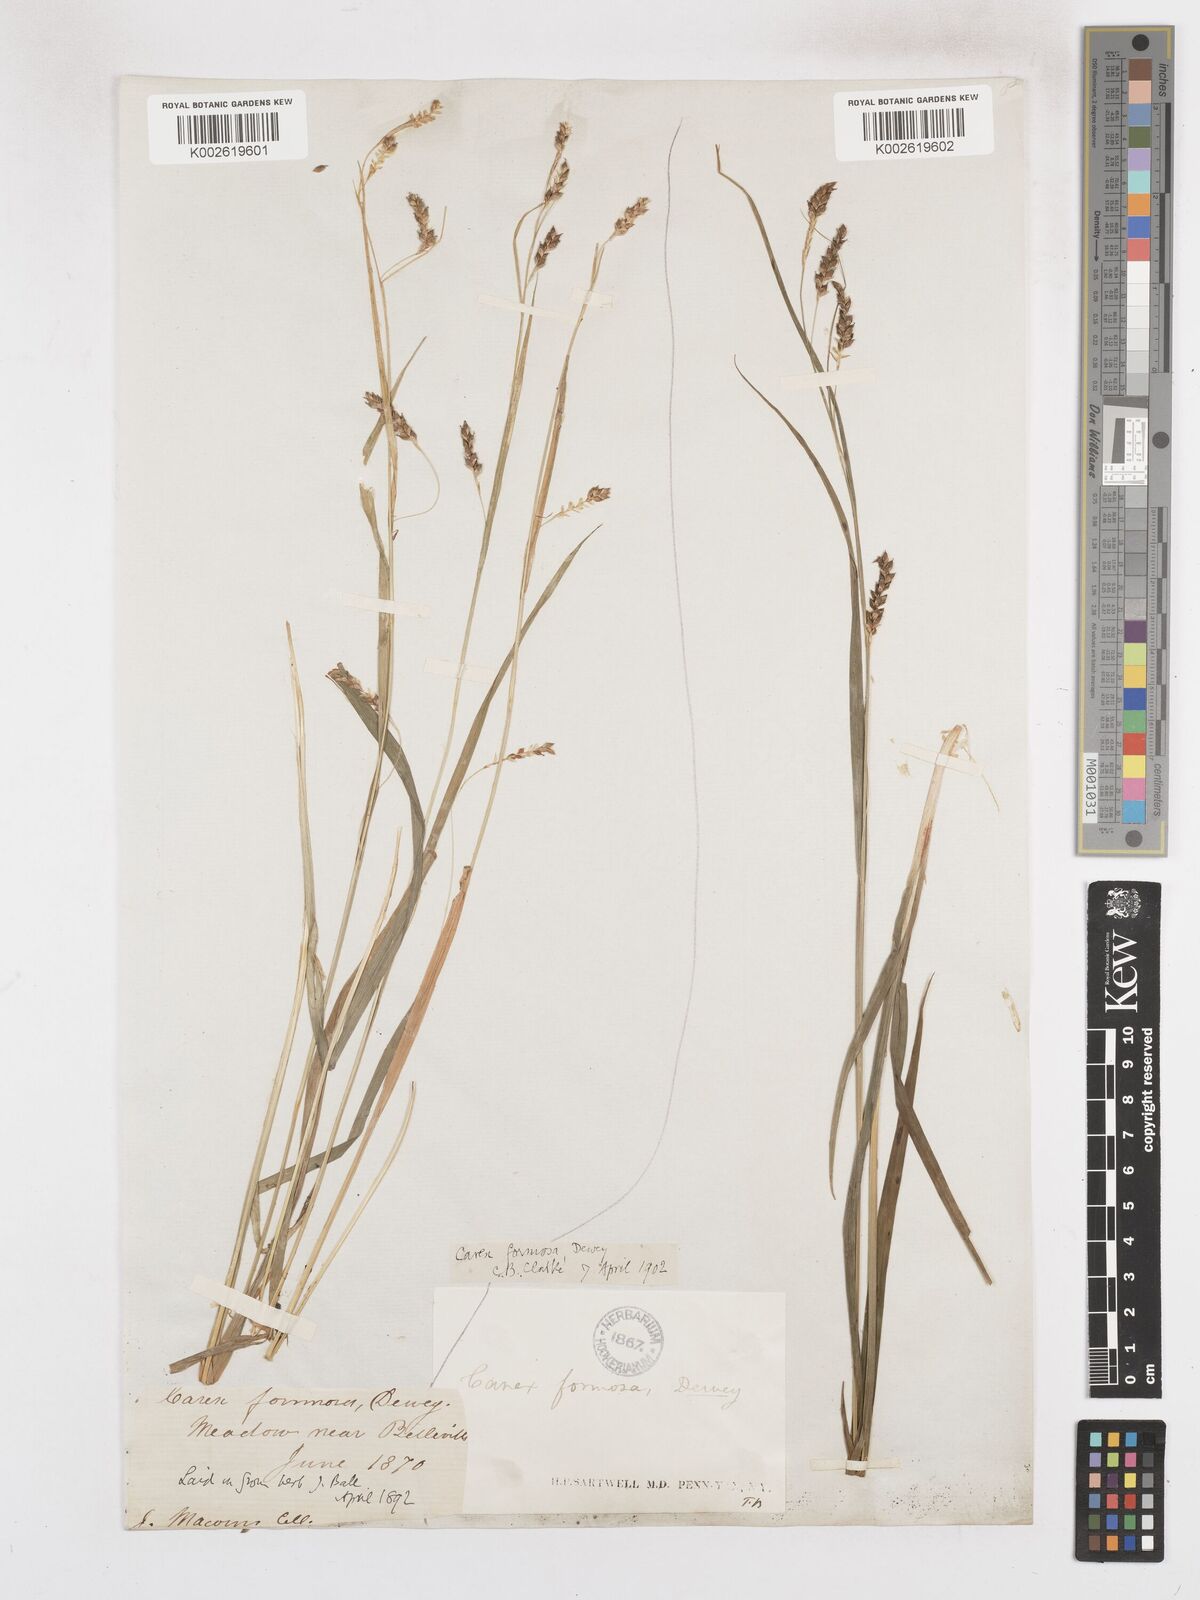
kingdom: Plantae
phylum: Tracheophyta
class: Liliopsida
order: Poales
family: Cyperaceae
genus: Carex
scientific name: Carex formosa
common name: Awnless graceful sedge
